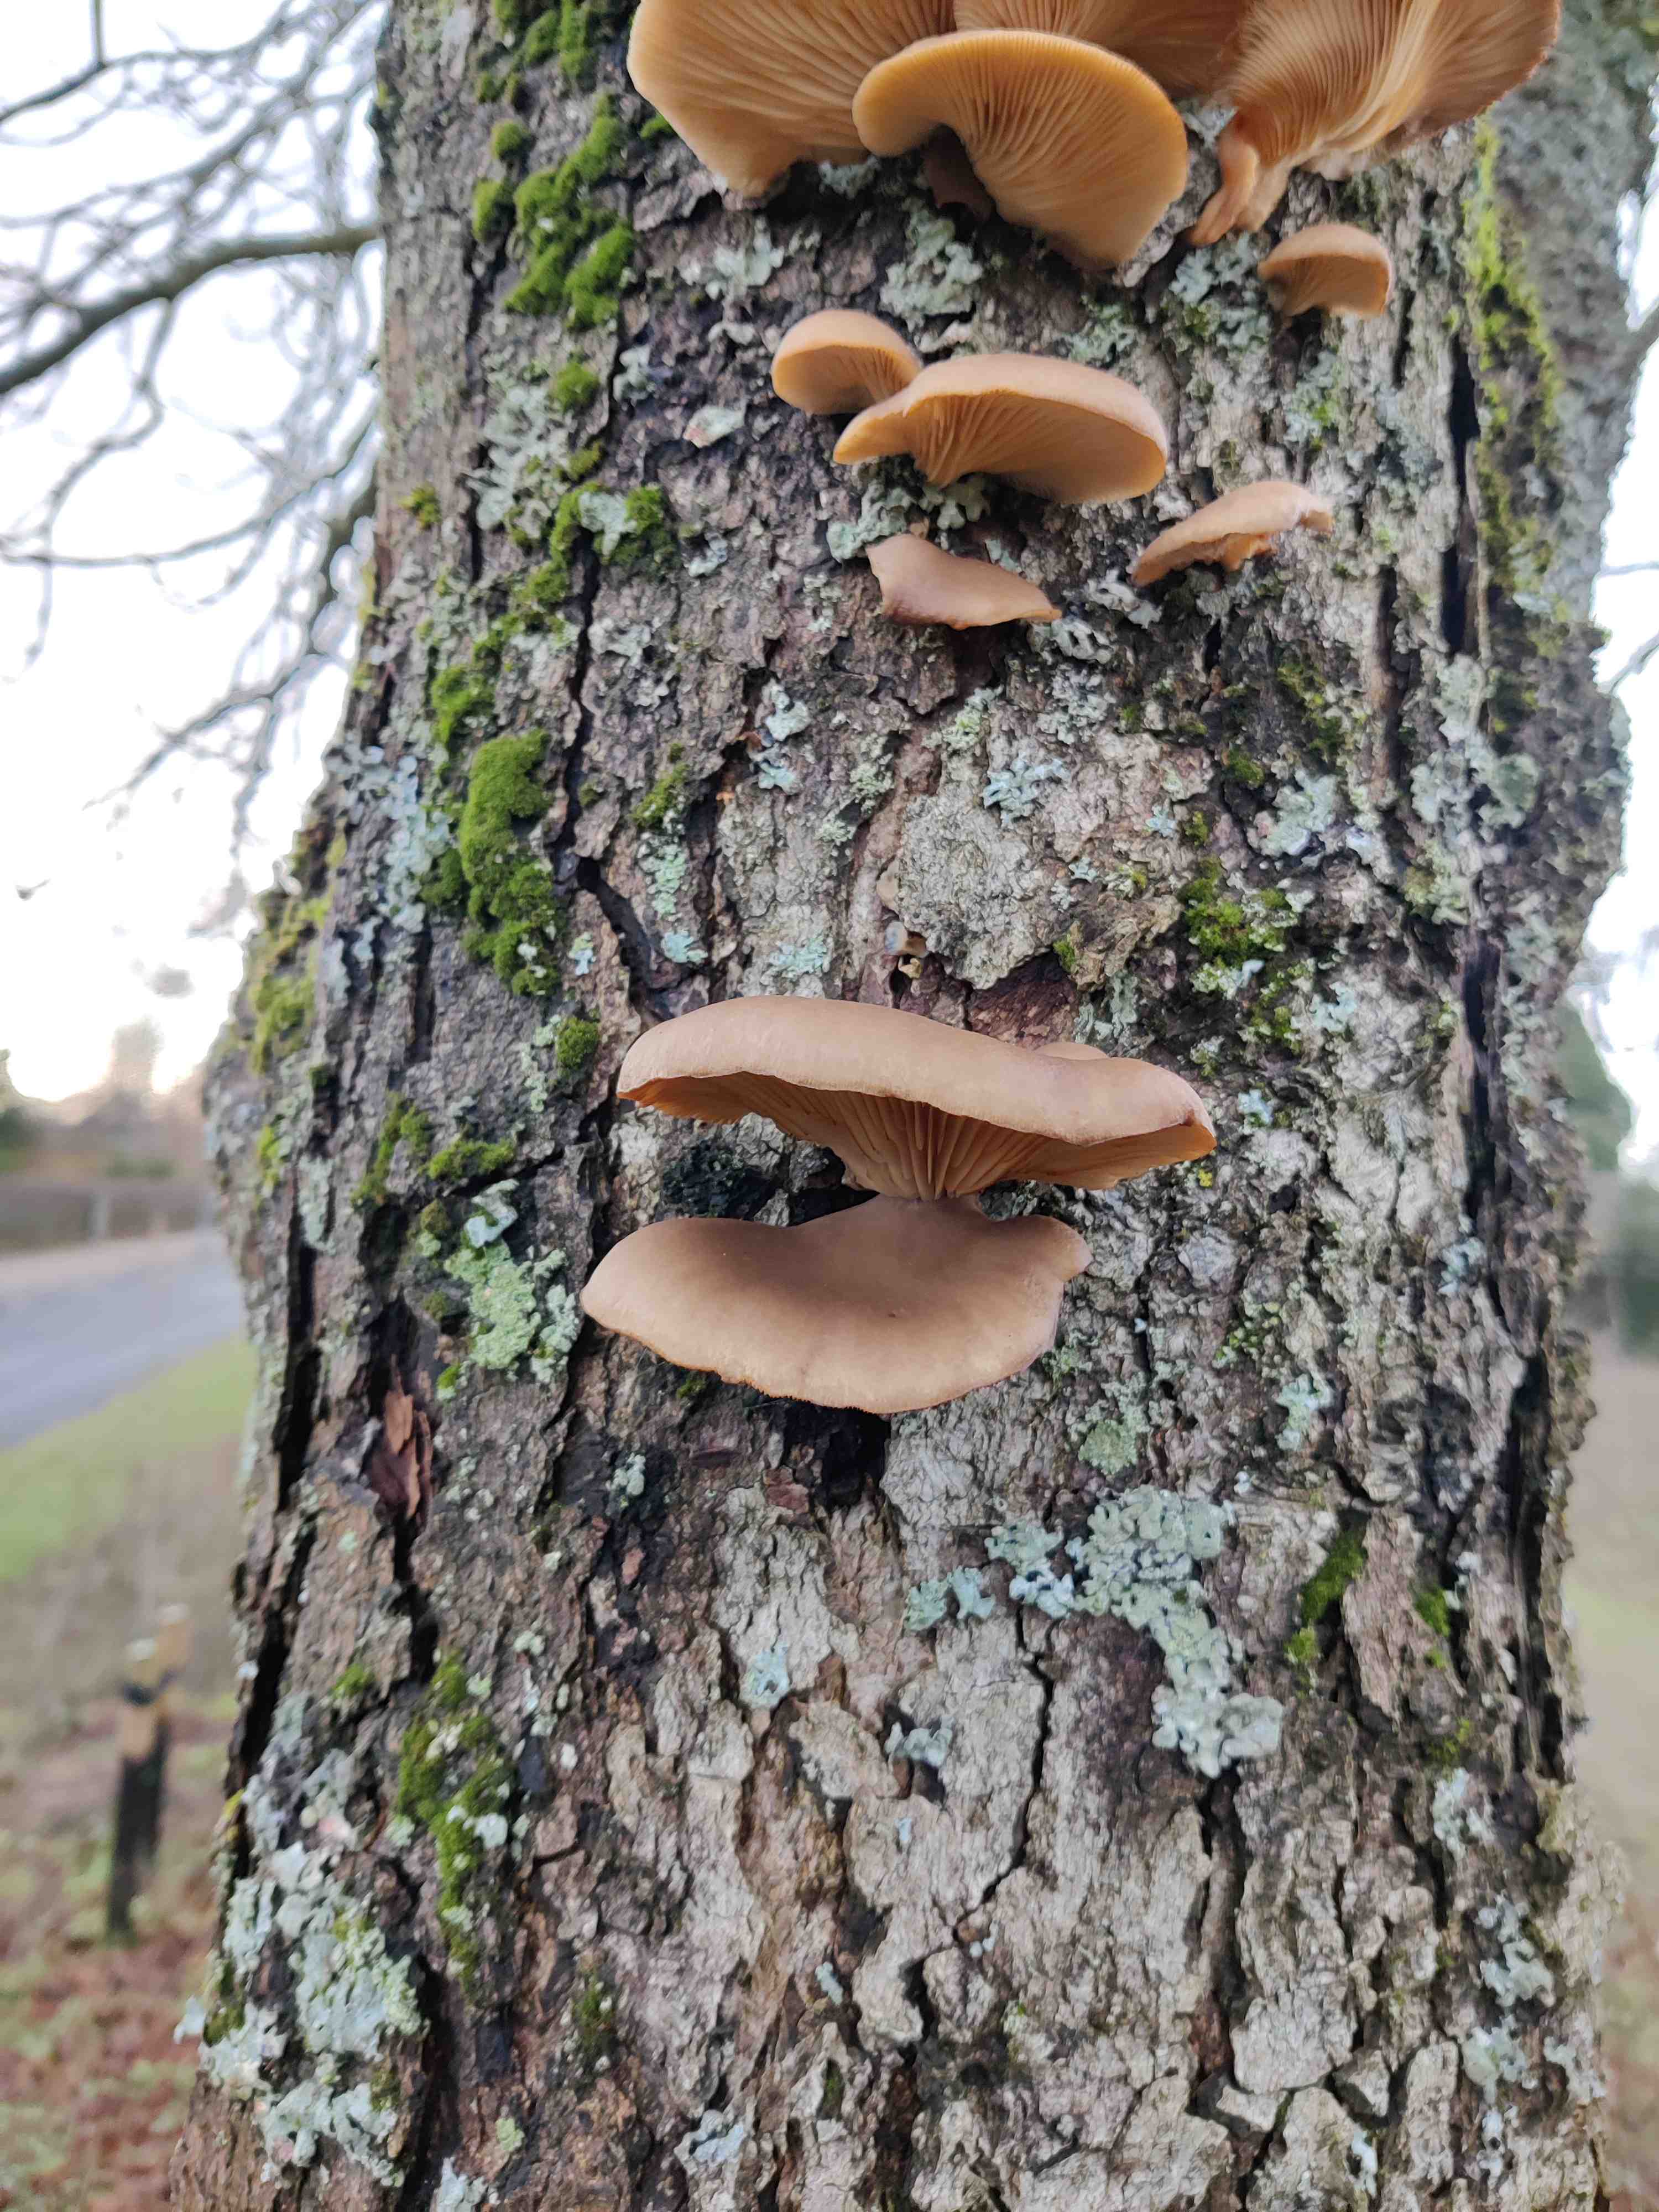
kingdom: Fungi
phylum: Basidiomycota
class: Agaricomycetes
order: Agaricales
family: Pleurotaceae
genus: Pleurotus
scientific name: Pleurotus ostreatus
